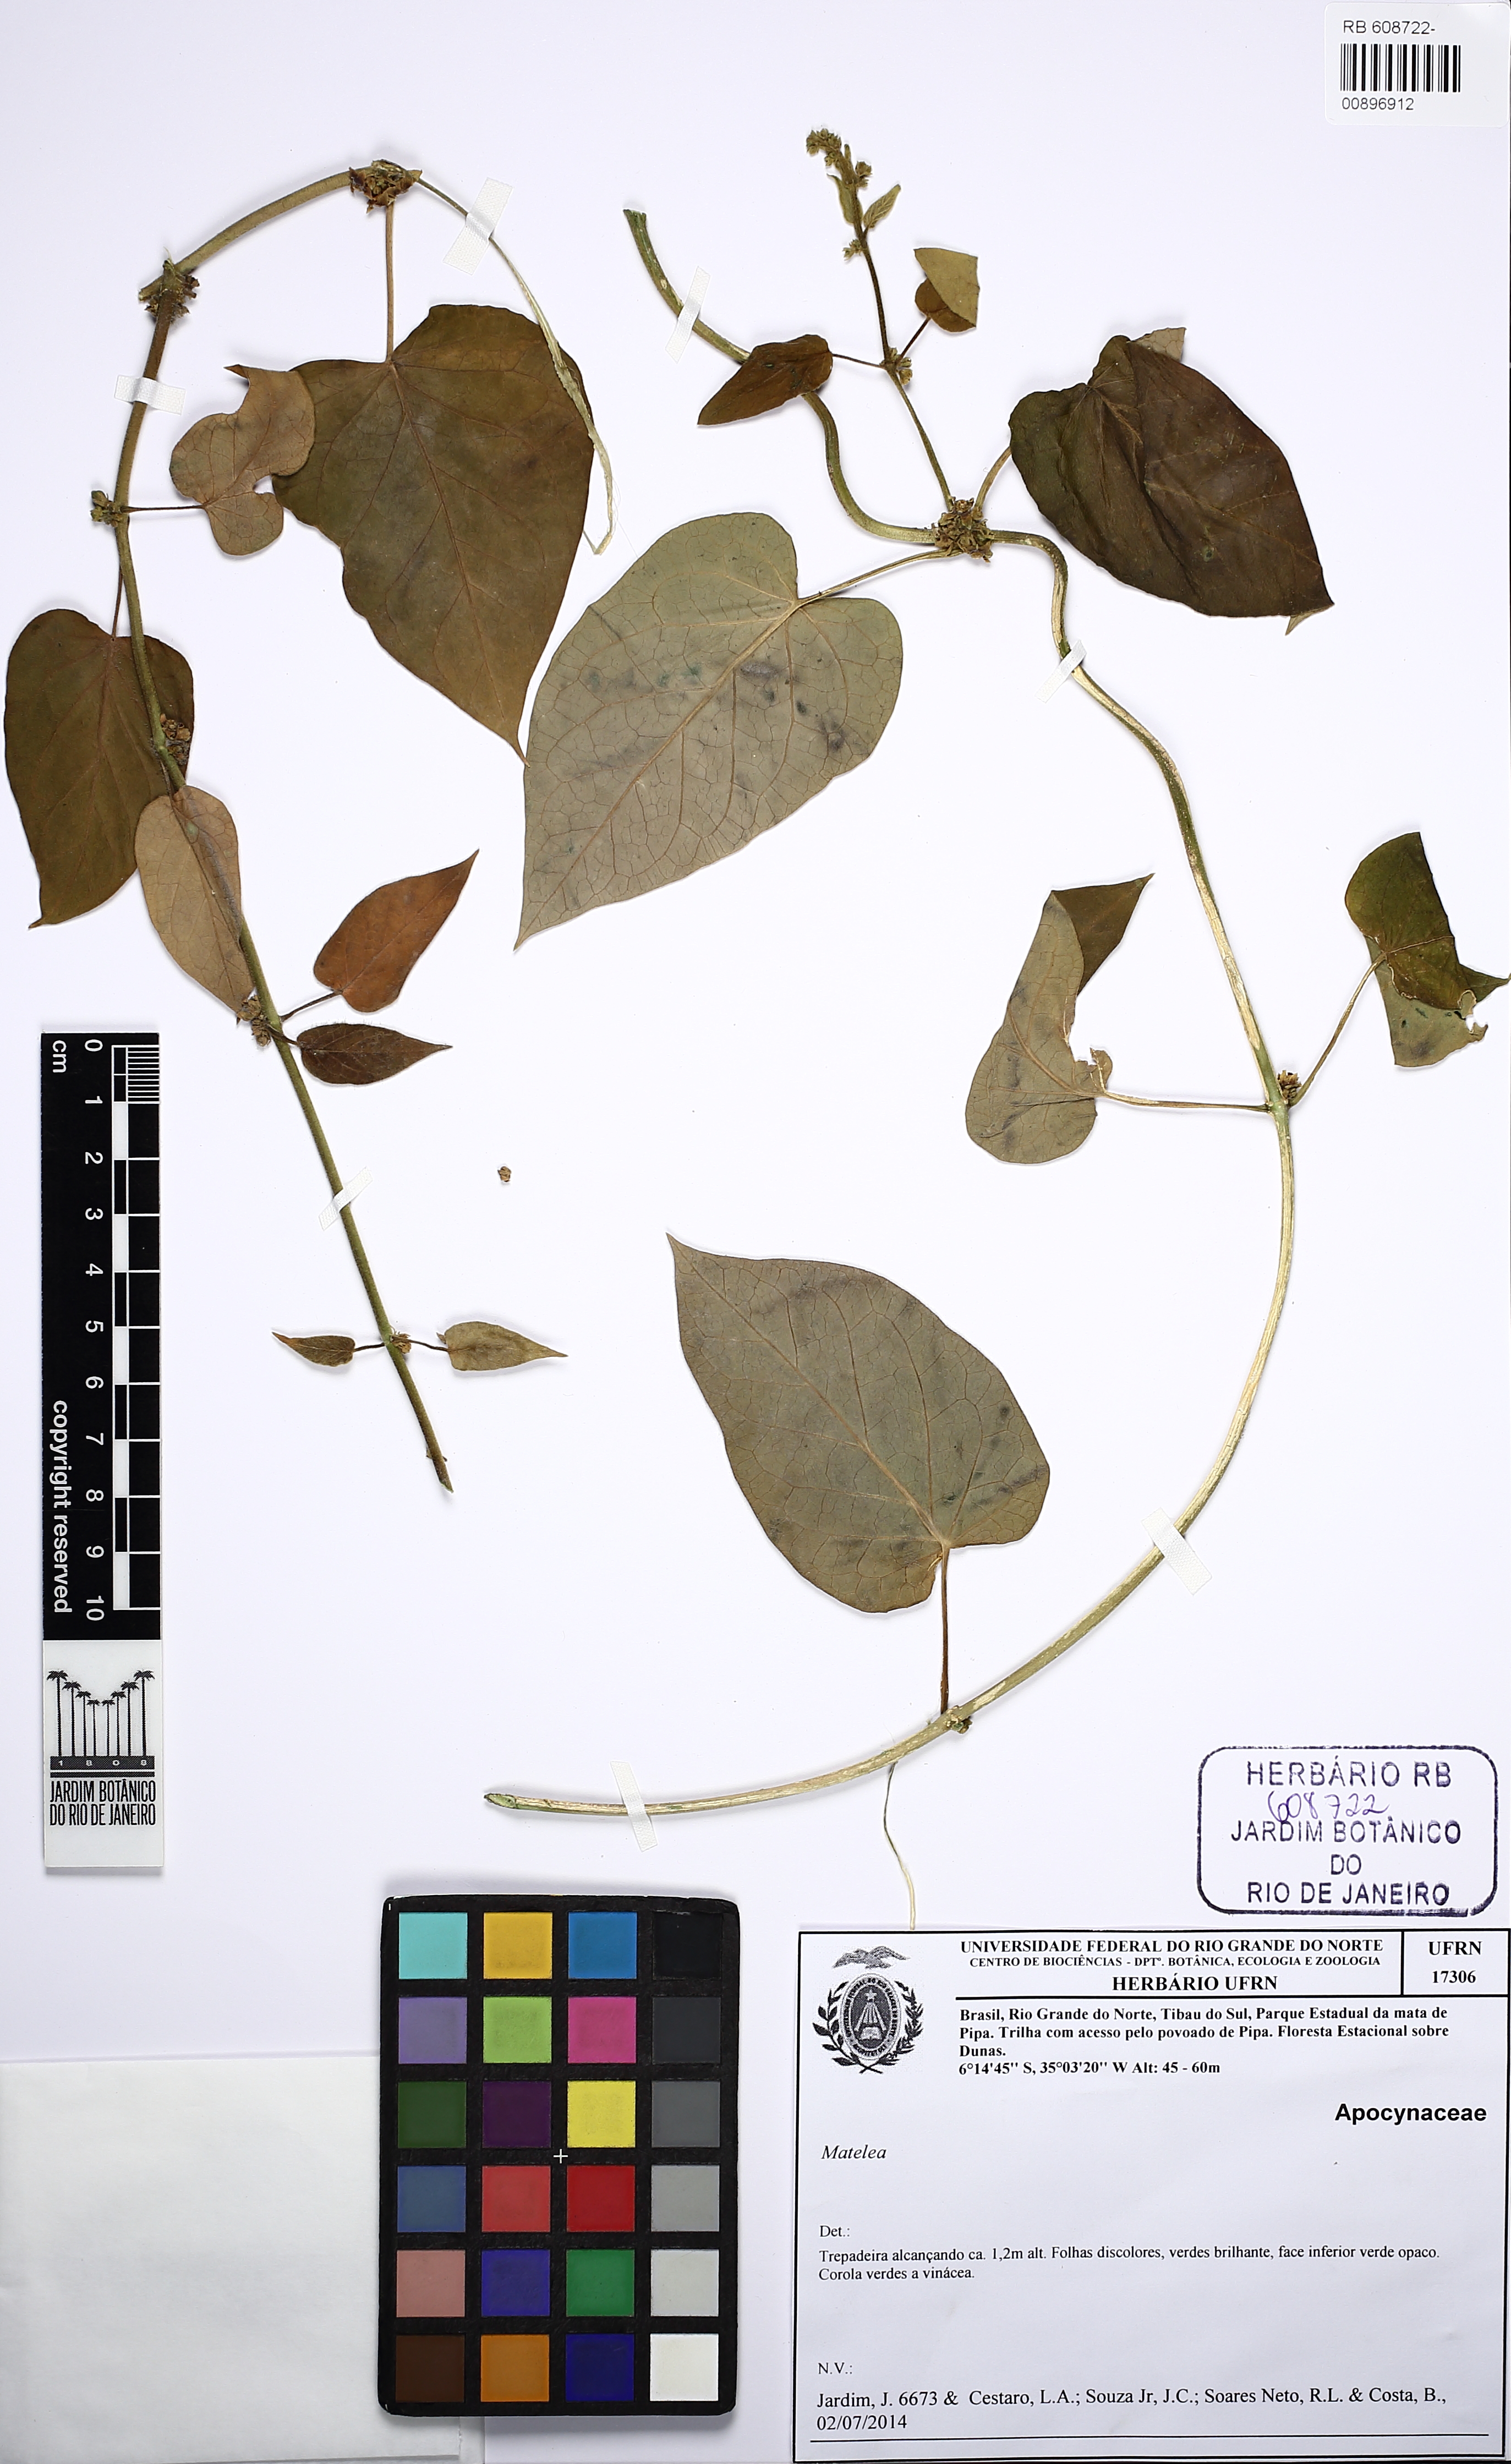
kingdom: Plantae
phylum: Tracheophyta
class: Magnoliopsida
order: Gentianales
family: Apocynaceae
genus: Ibatia
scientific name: Ibatia ganglinosa
